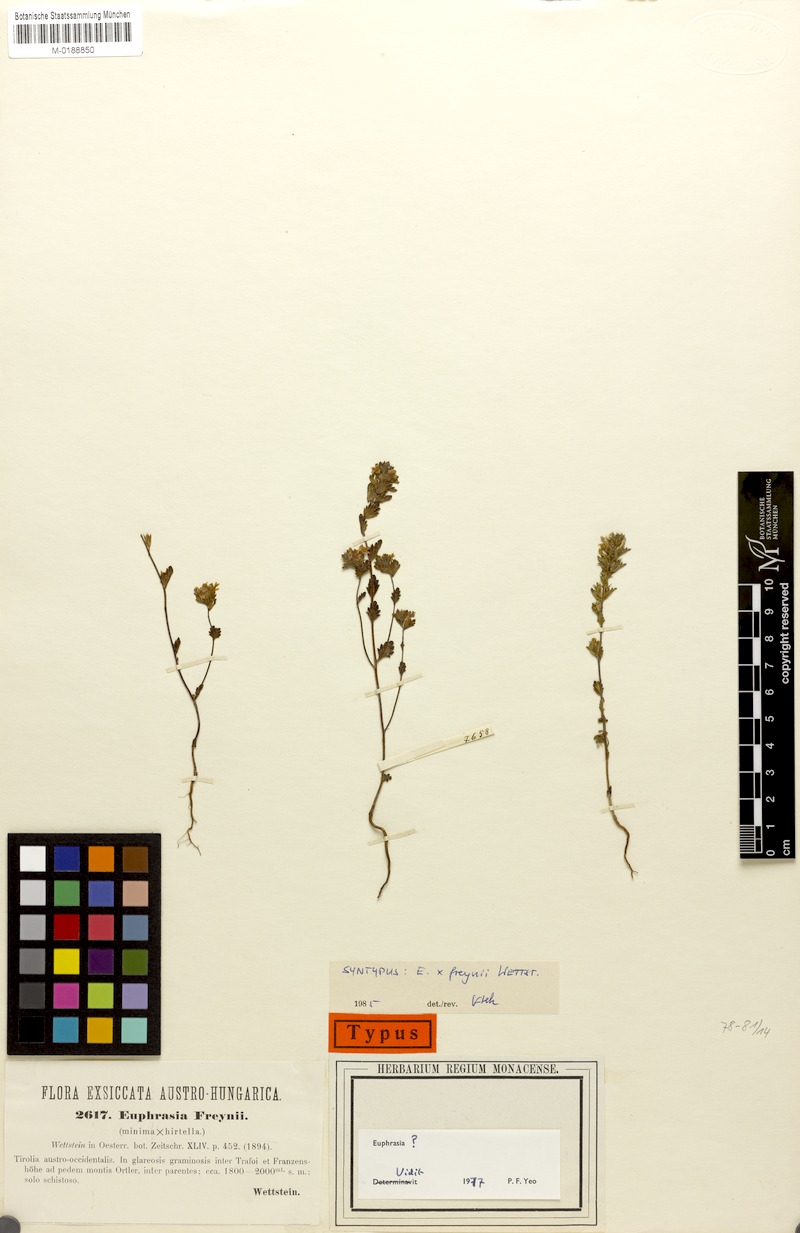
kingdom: Plantae
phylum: Tracheophyta
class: Magnoliopsida
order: Lamiales
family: Orobanchaceae
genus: Euphrasia
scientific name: Euphrasia freynii
